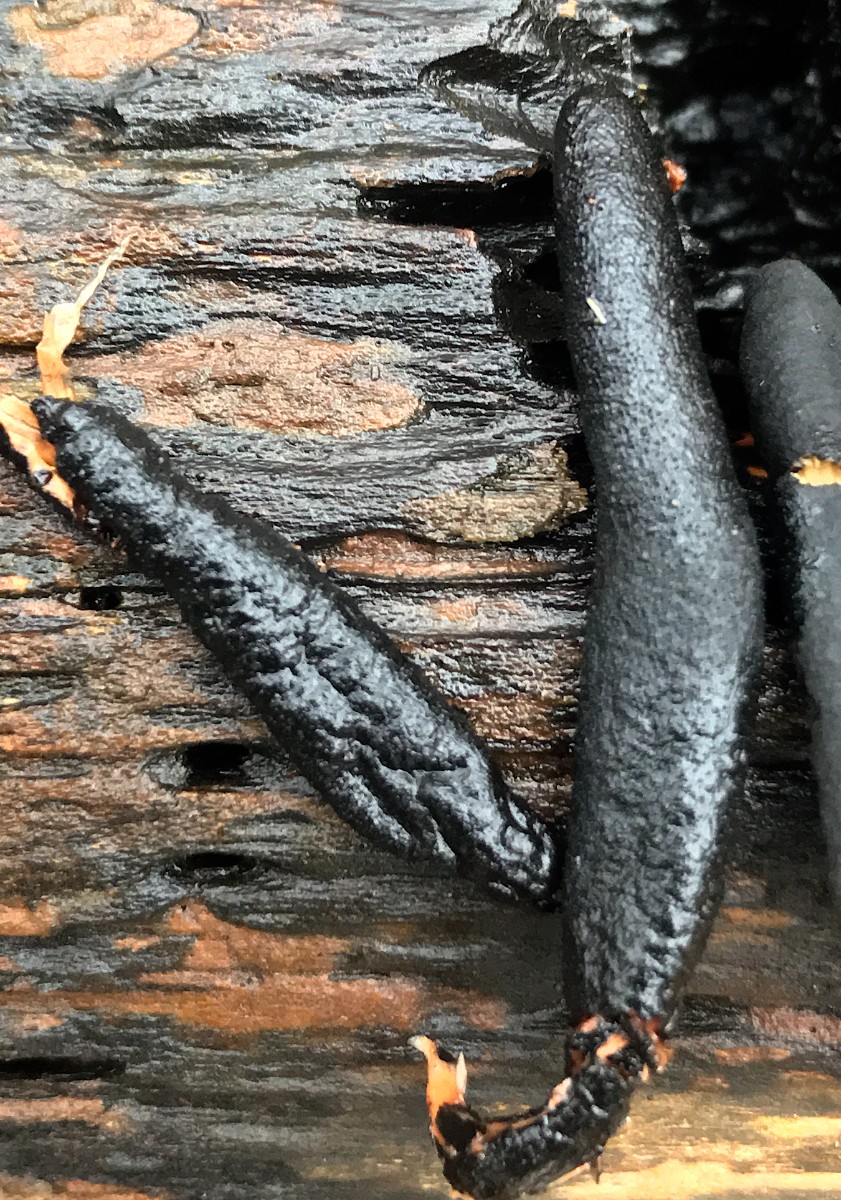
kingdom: Fungi
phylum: Ascomycota
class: Sordariomycetes
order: Xylariales
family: Xylariaceae
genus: Xylaria
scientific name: Xylaria
